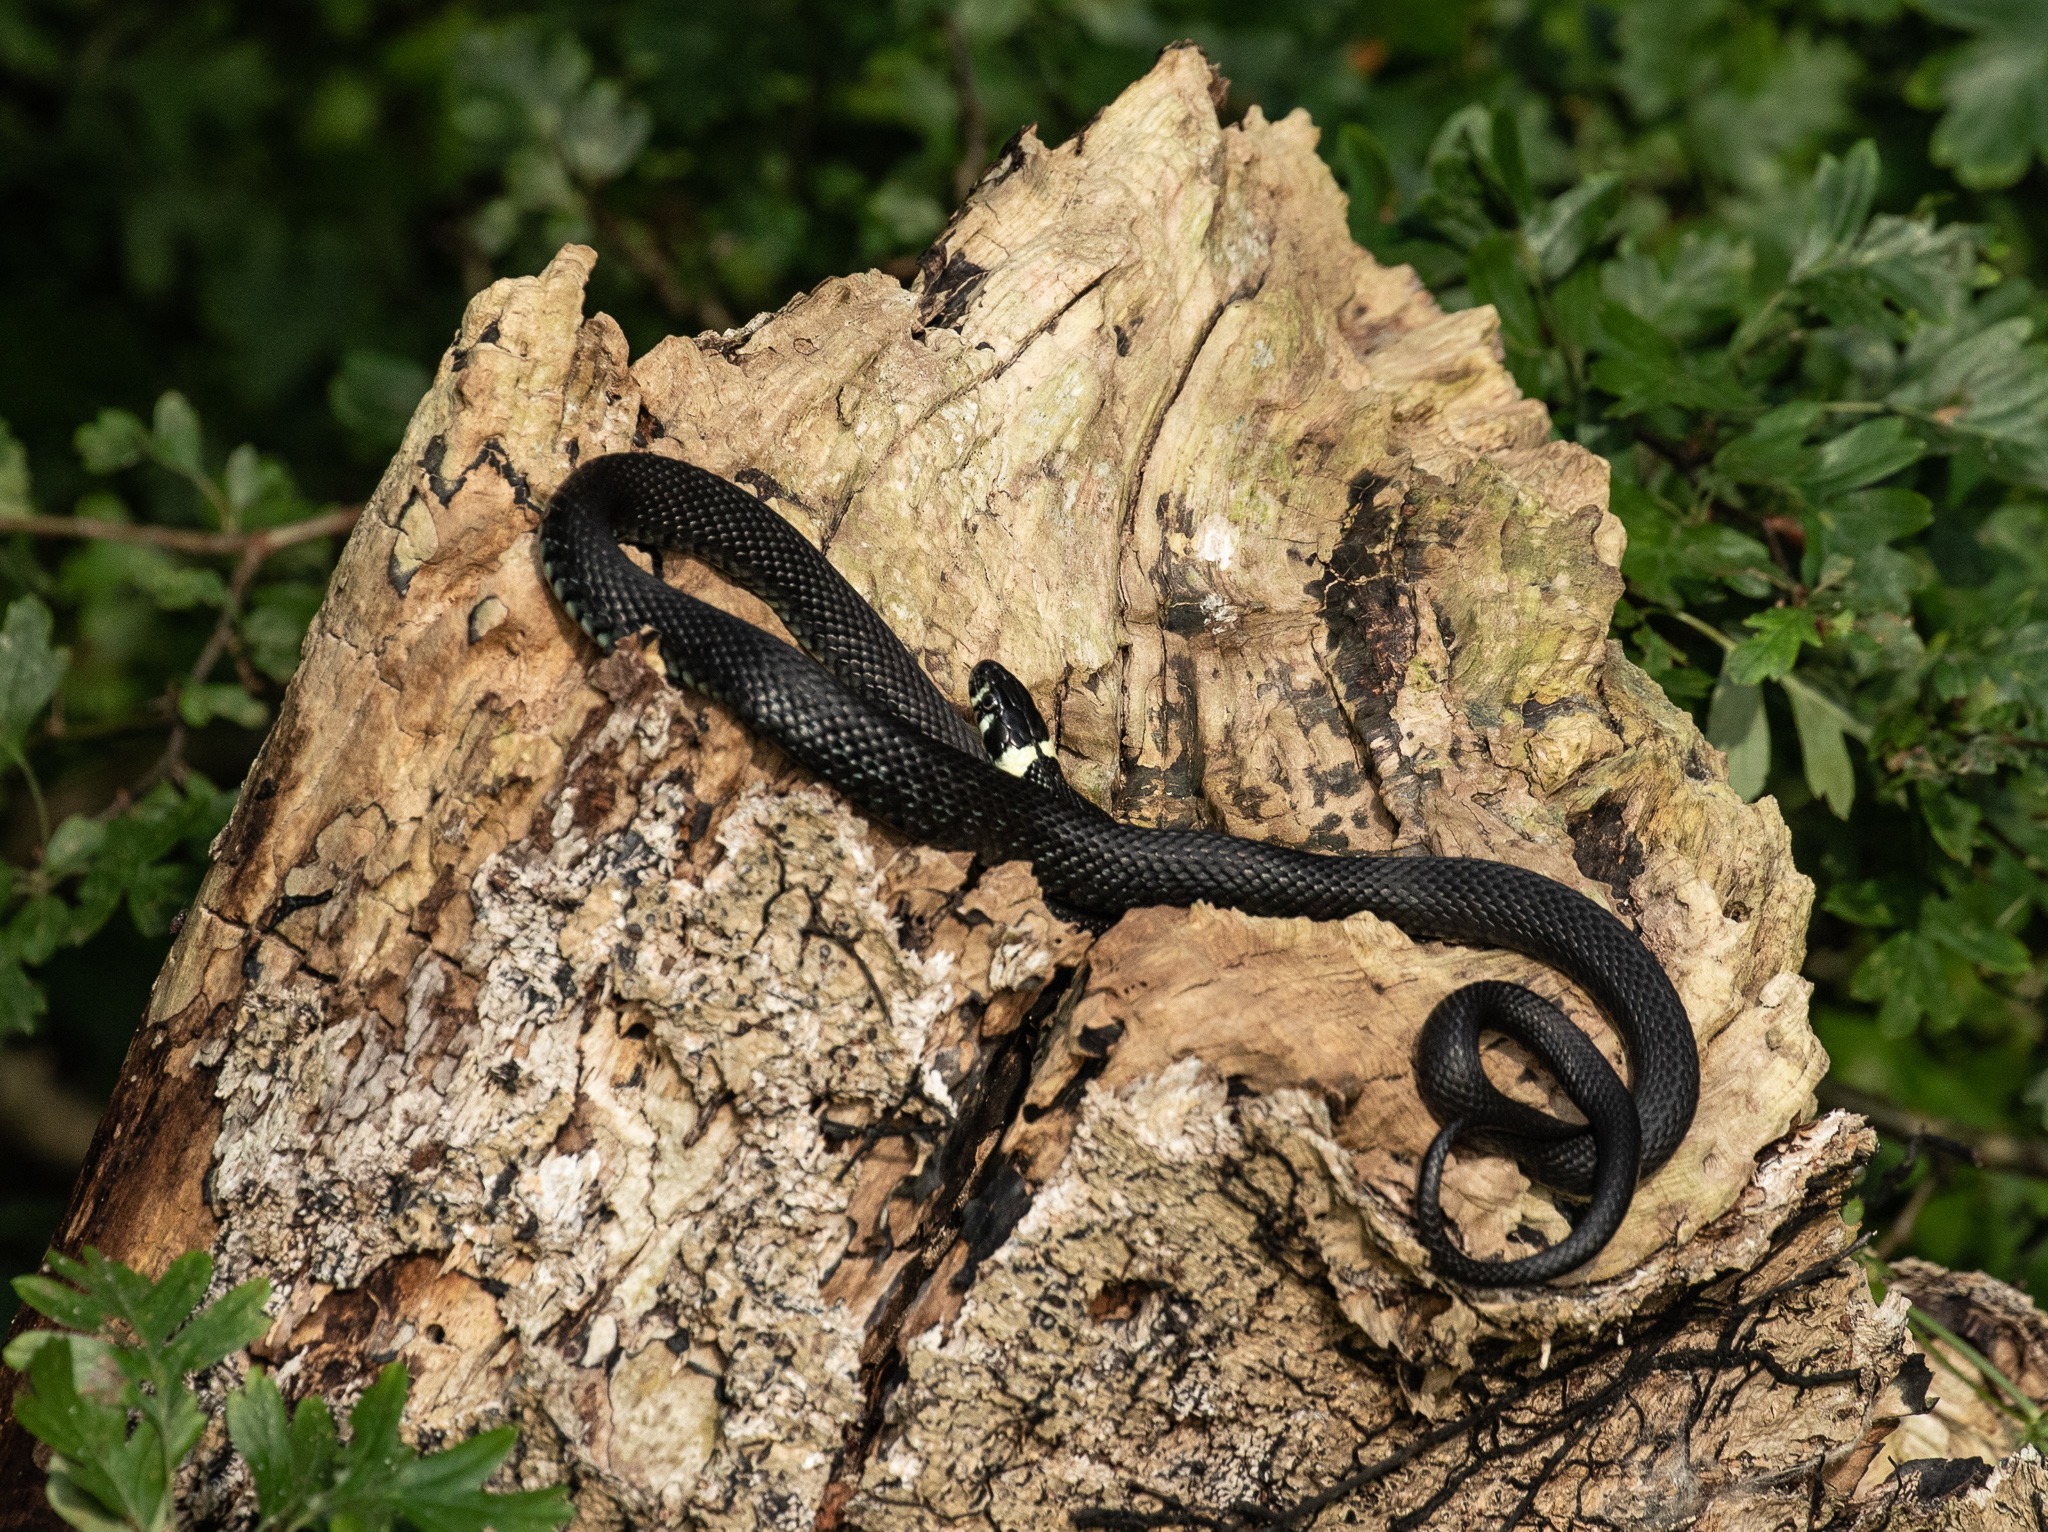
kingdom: Animalia
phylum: Chordata
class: Squamata
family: Colubridae
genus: Natrix
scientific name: Natrix natrix
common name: Snog
